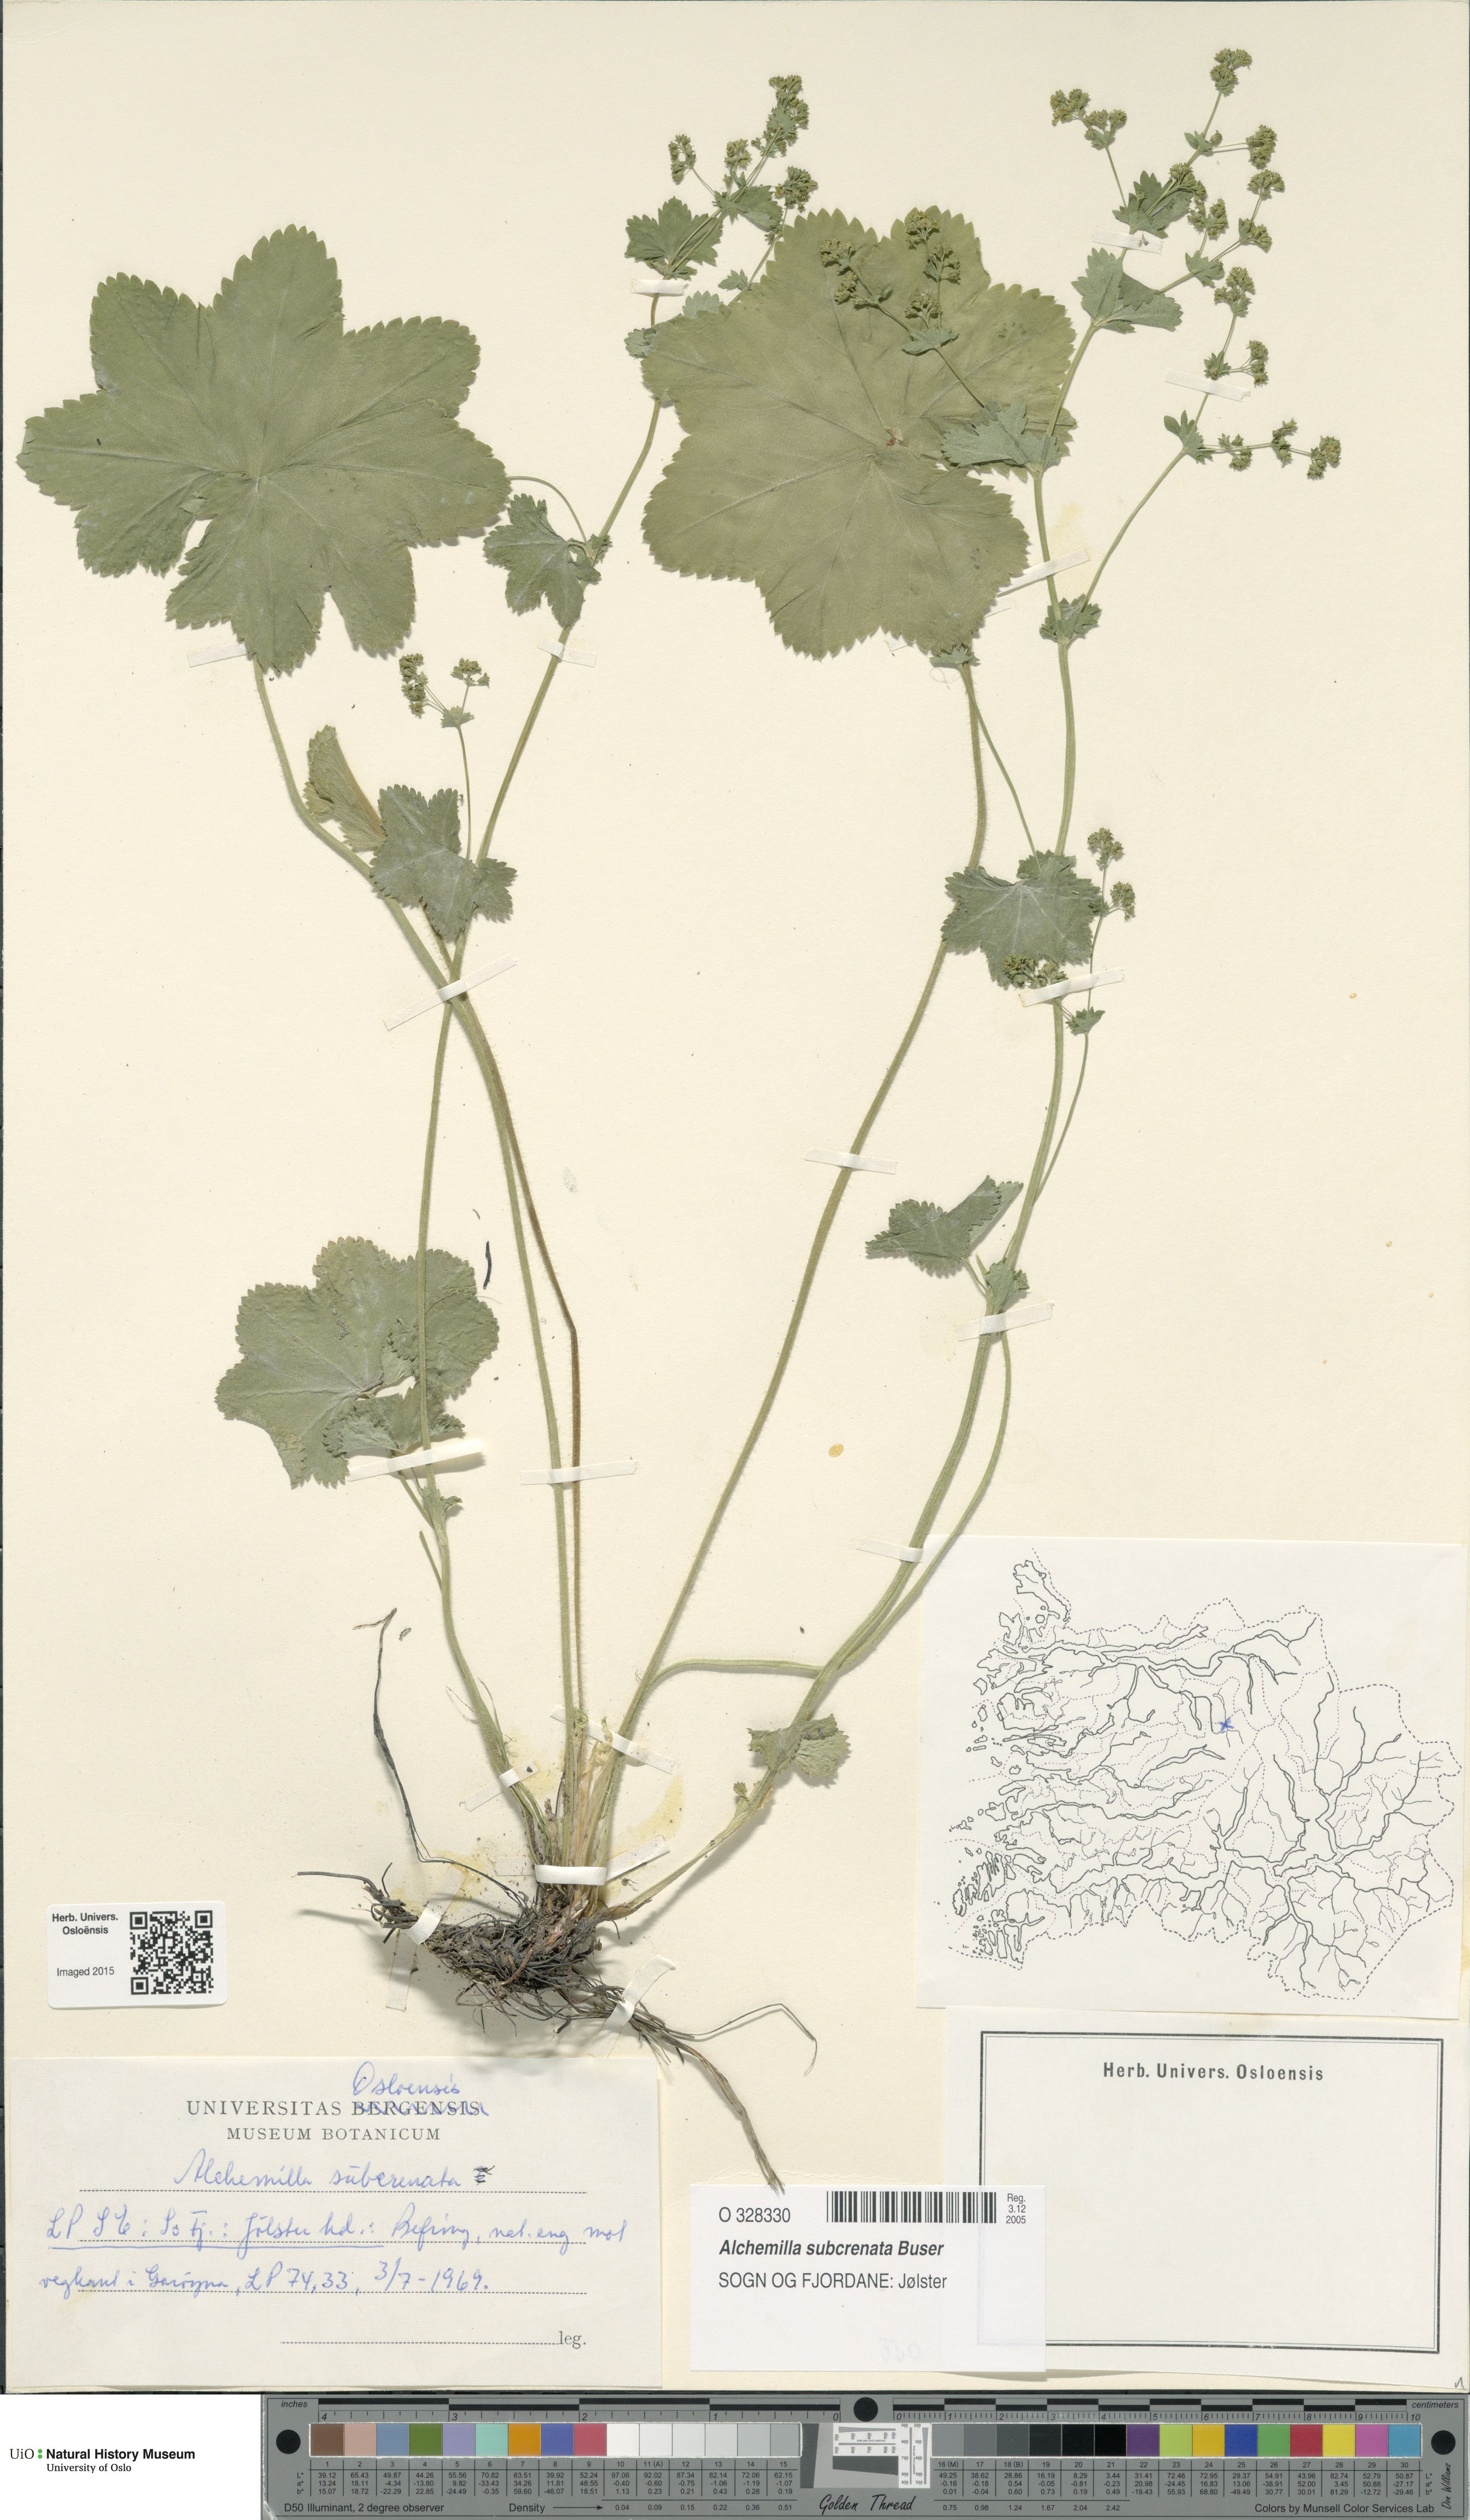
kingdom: Plantae
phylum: Tracheophyta
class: Magnoliopsida
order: Rosales
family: Rosaceae
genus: Alchemilla
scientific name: Alchemilla subcrenata
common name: Broadtooth lady's mantle
